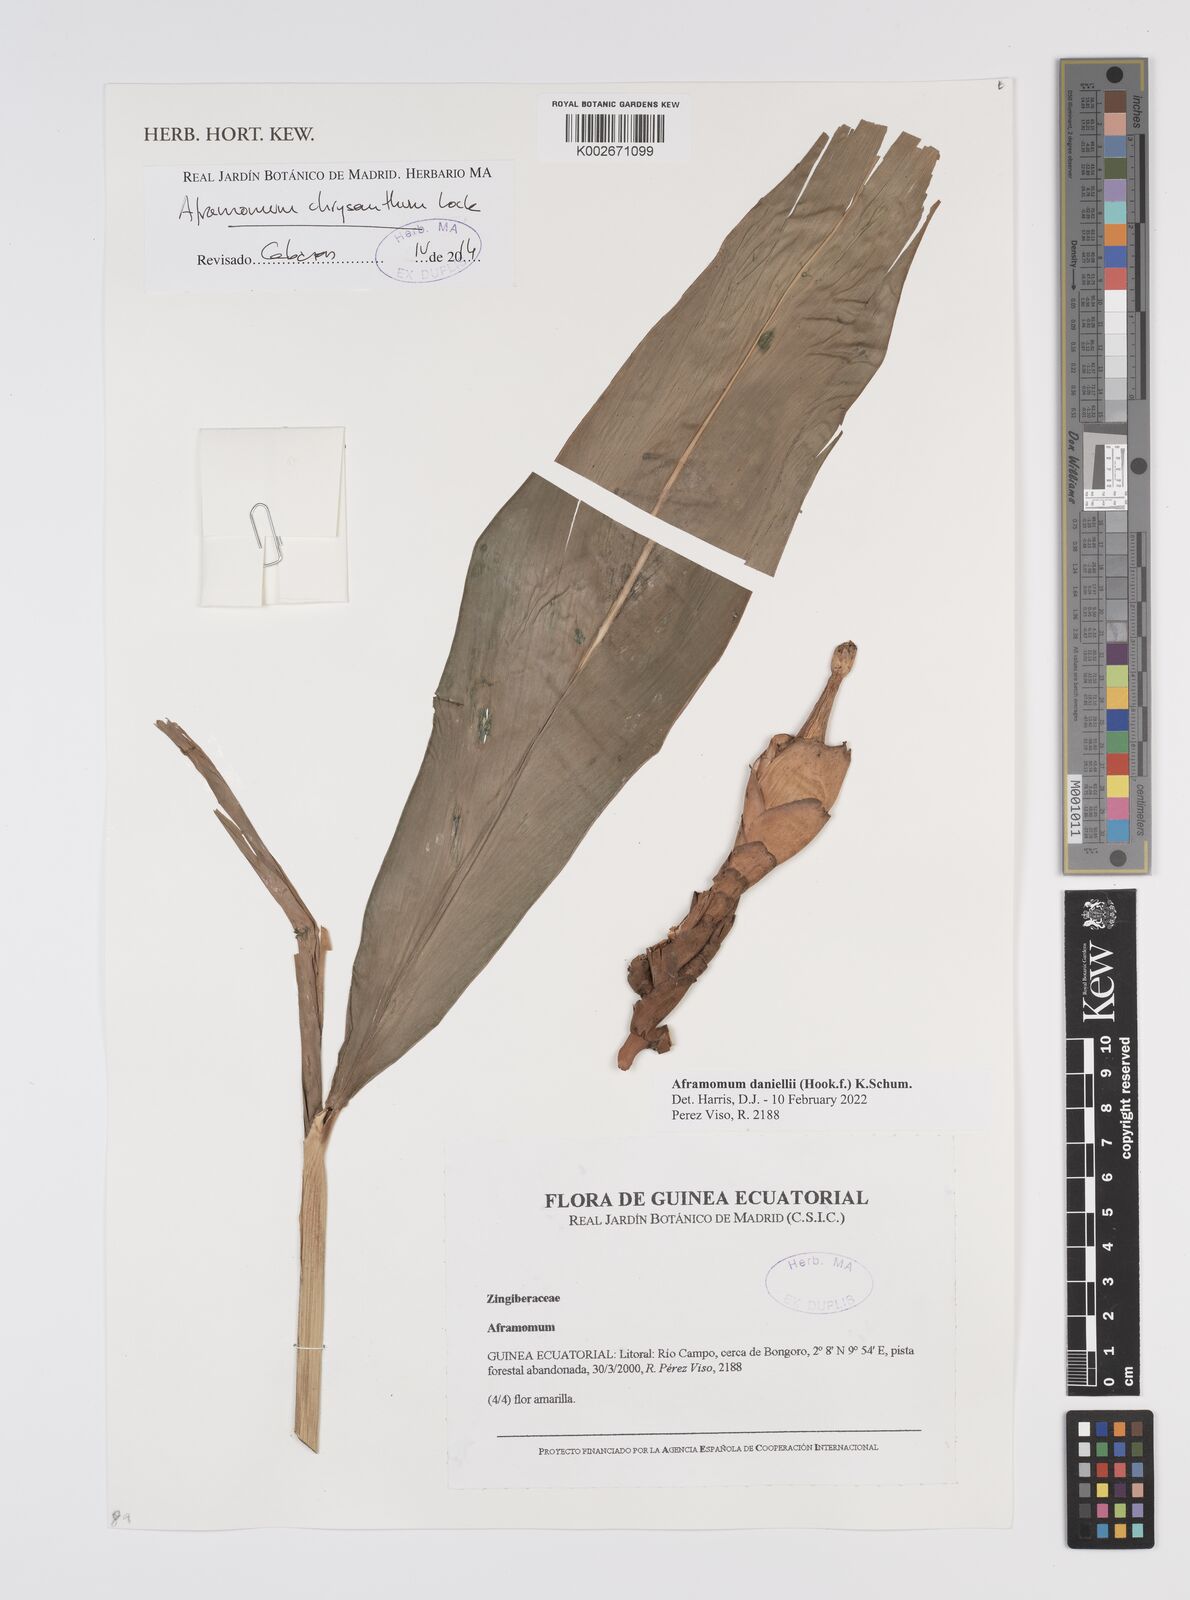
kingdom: Plantae
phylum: Tracheophyta
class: Liliopsida
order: Zingiberales
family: Zingiberaceae
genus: Aframomum
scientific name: Aframomum daniellii
